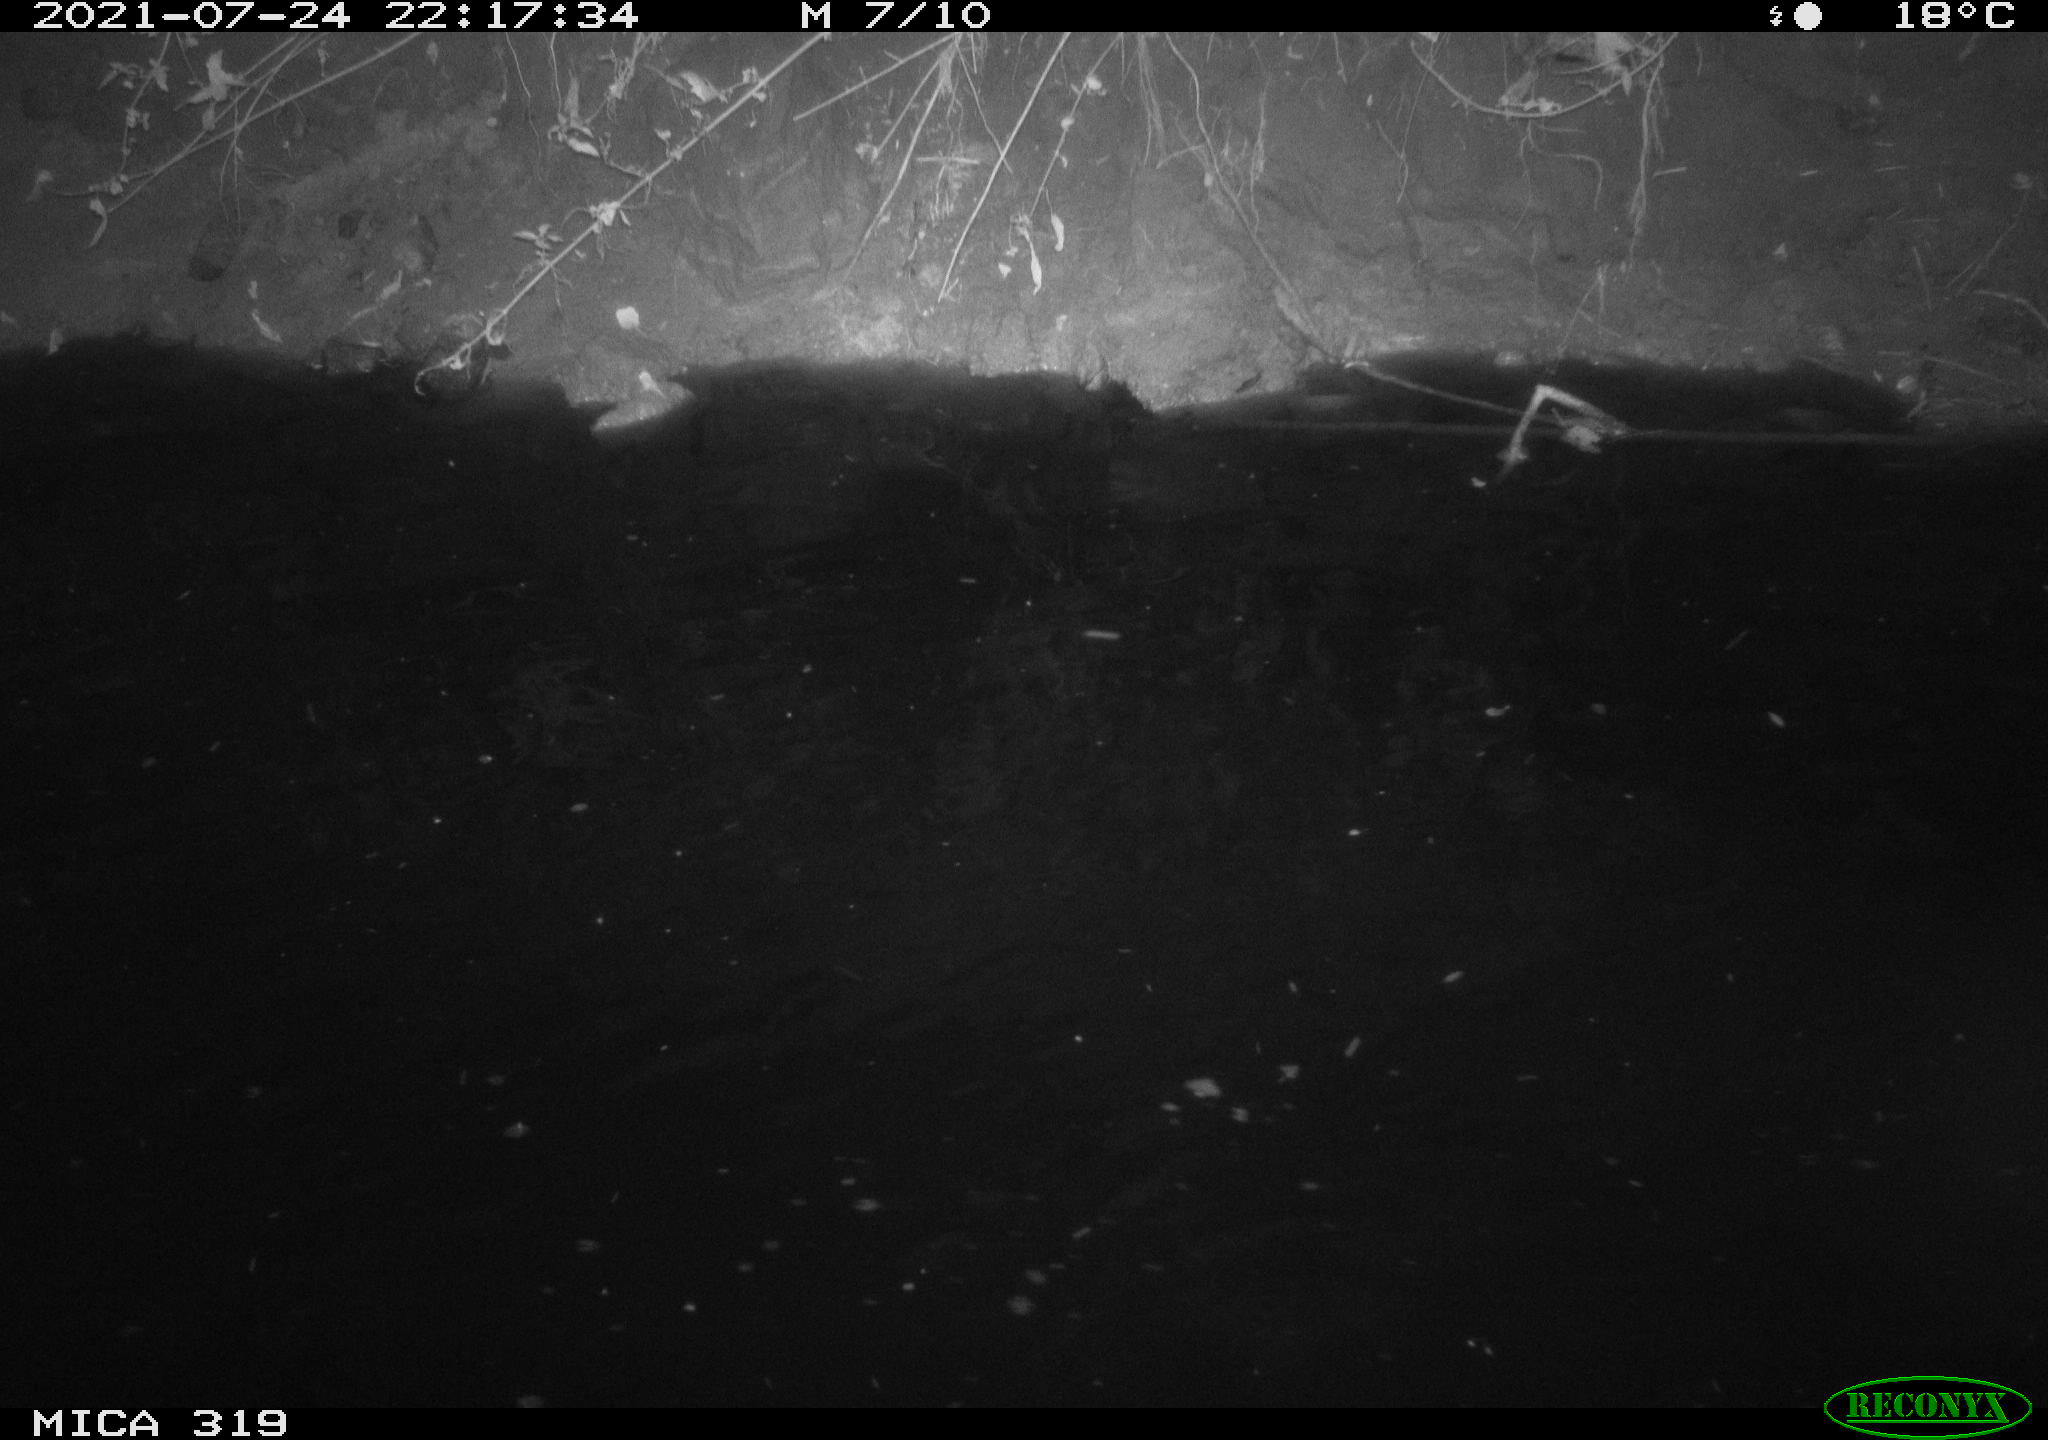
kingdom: Animalia
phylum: Chordata
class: Aves
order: Anseriformes
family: Anatidae
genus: Anas
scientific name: Anas platyrhynchos
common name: Mallard
